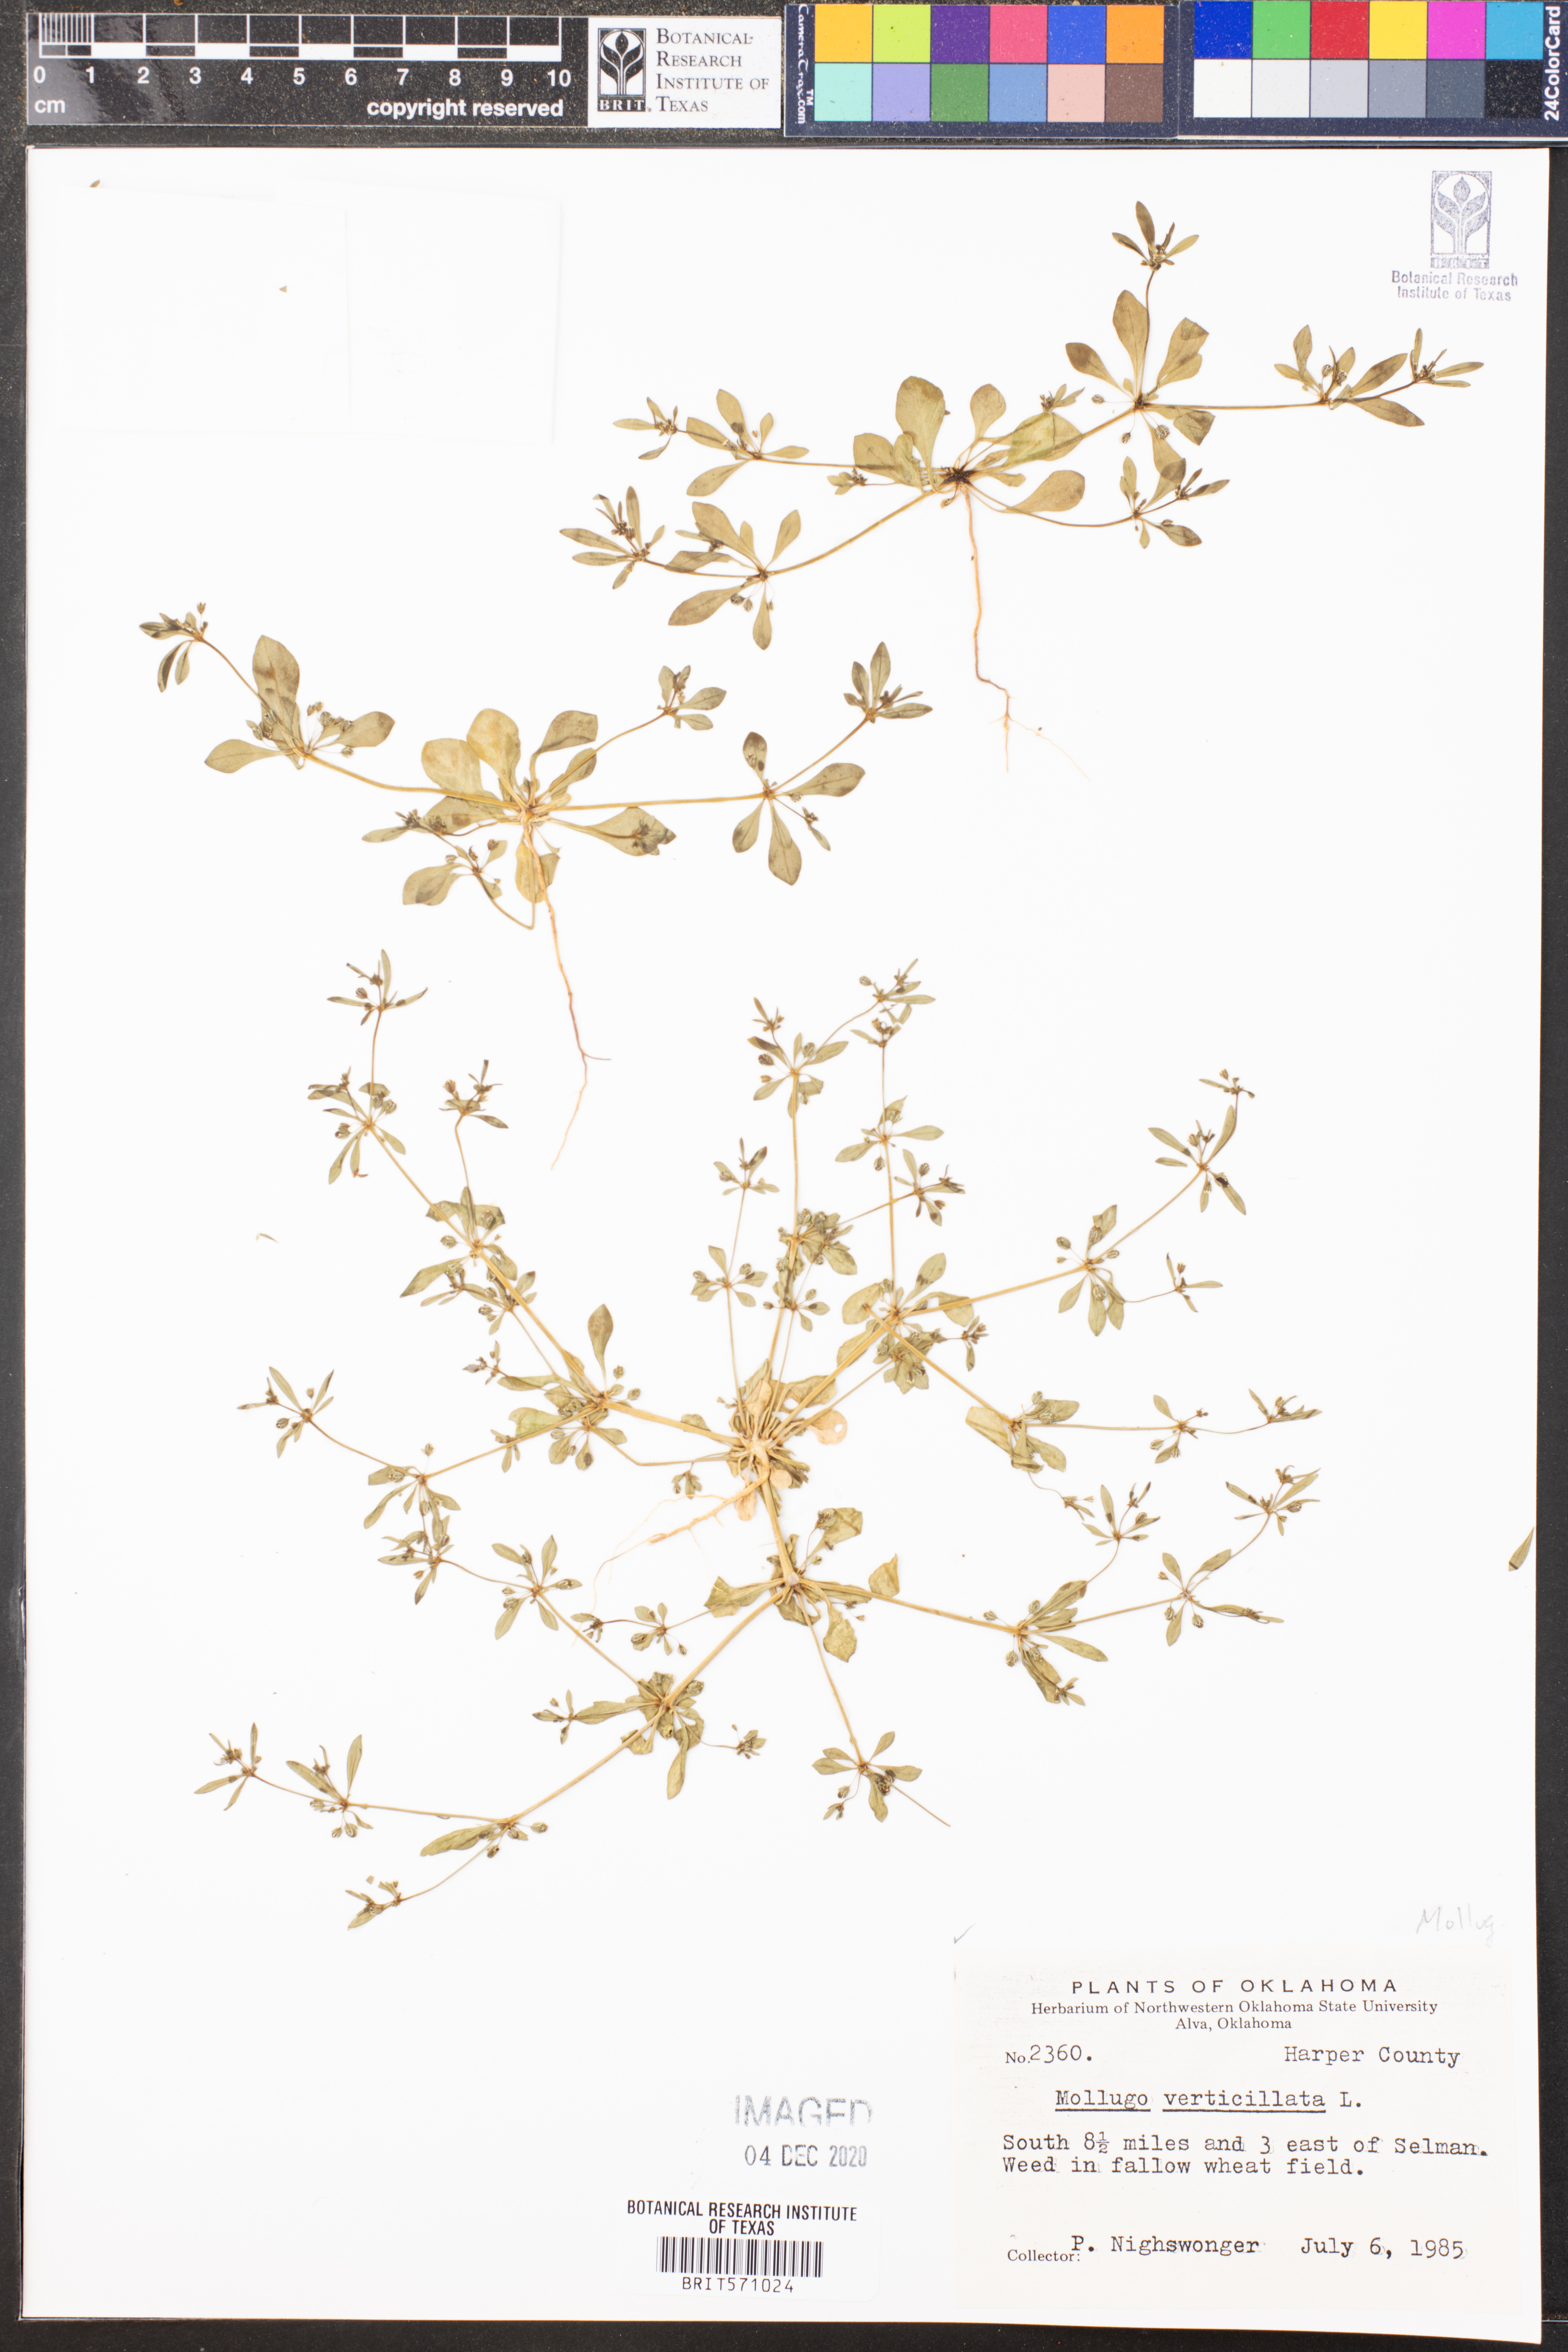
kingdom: Plantae
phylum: Tracheophyta
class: Magnoliopsida
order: Caryophyllales
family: Molluginaceae
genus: Mollugo
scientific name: Mollugo verticillata
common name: Green carpetweed
